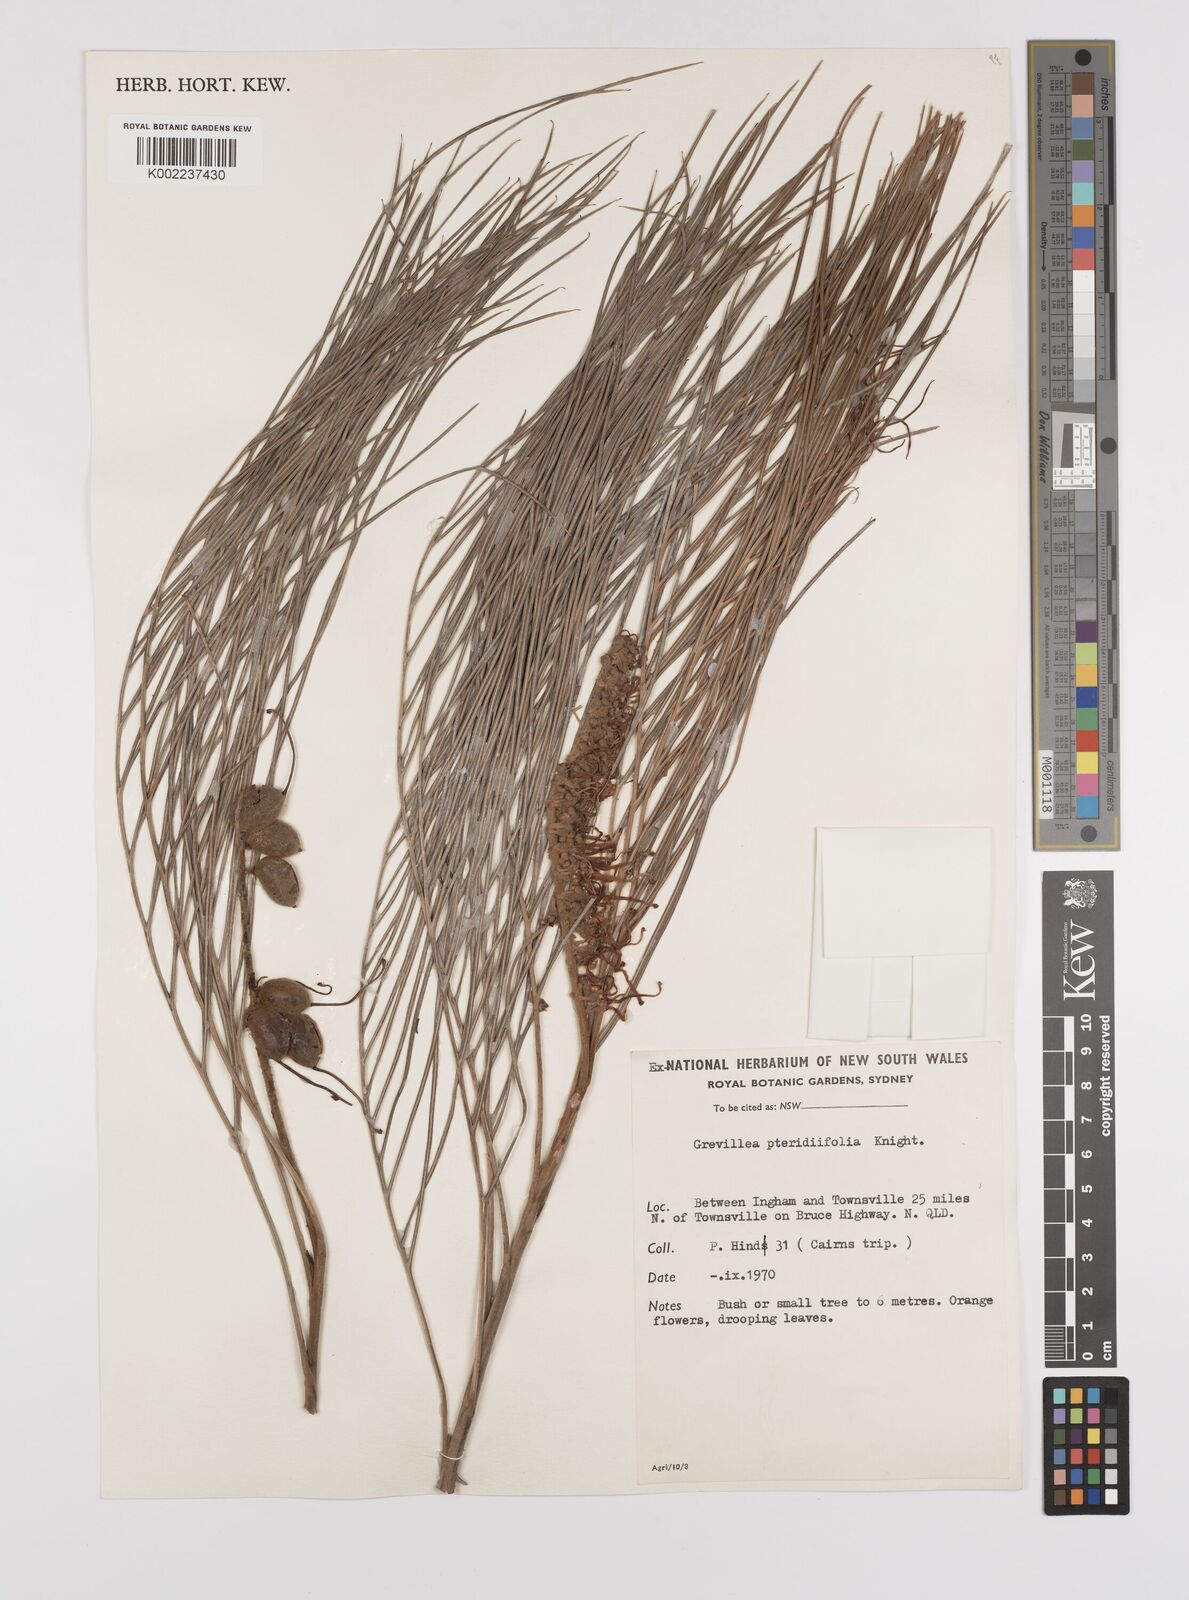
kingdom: Plantae
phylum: Tracheophyta
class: Magnoliopsida
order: Proteales
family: Proteaceae
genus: Grevillea
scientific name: Grevillea pteridifolia
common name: Golden grevillea
